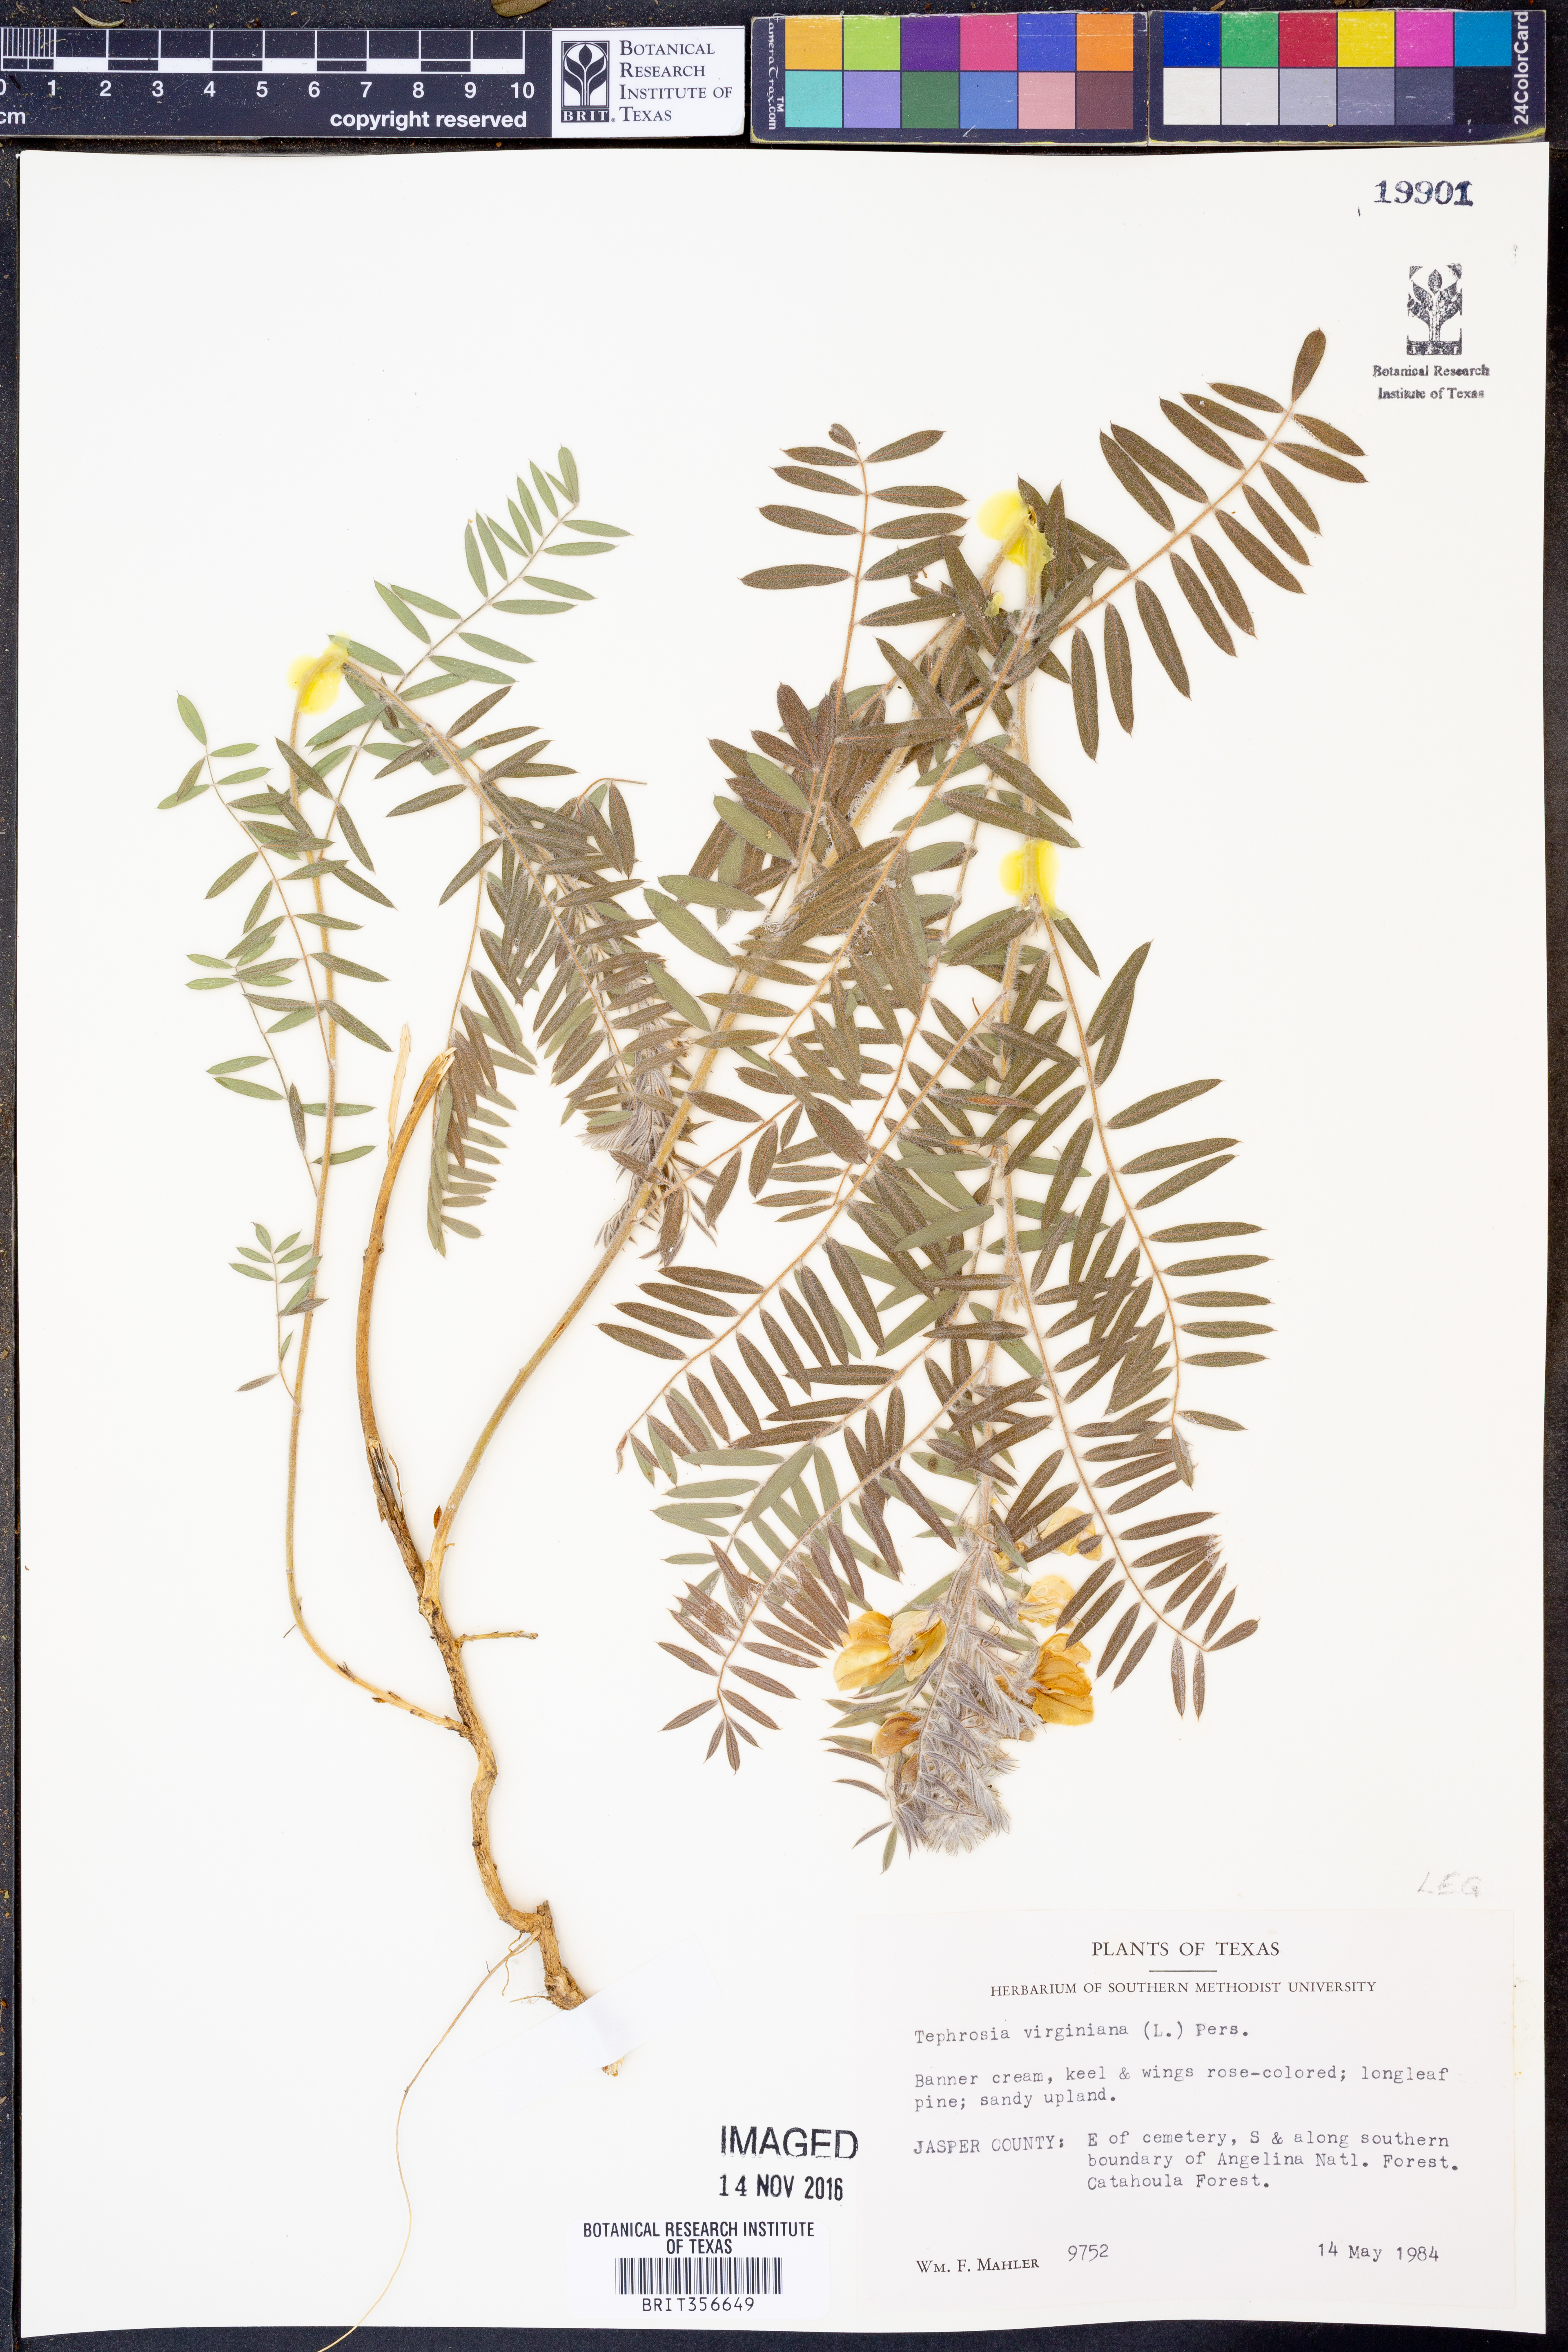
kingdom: Plantae
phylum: Tracheophyta
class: Magnoliopsida
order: Fabales
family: Fabaceae
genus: Tephrosia
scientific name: Tephrosia virginiana
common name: Rabbit-pea
